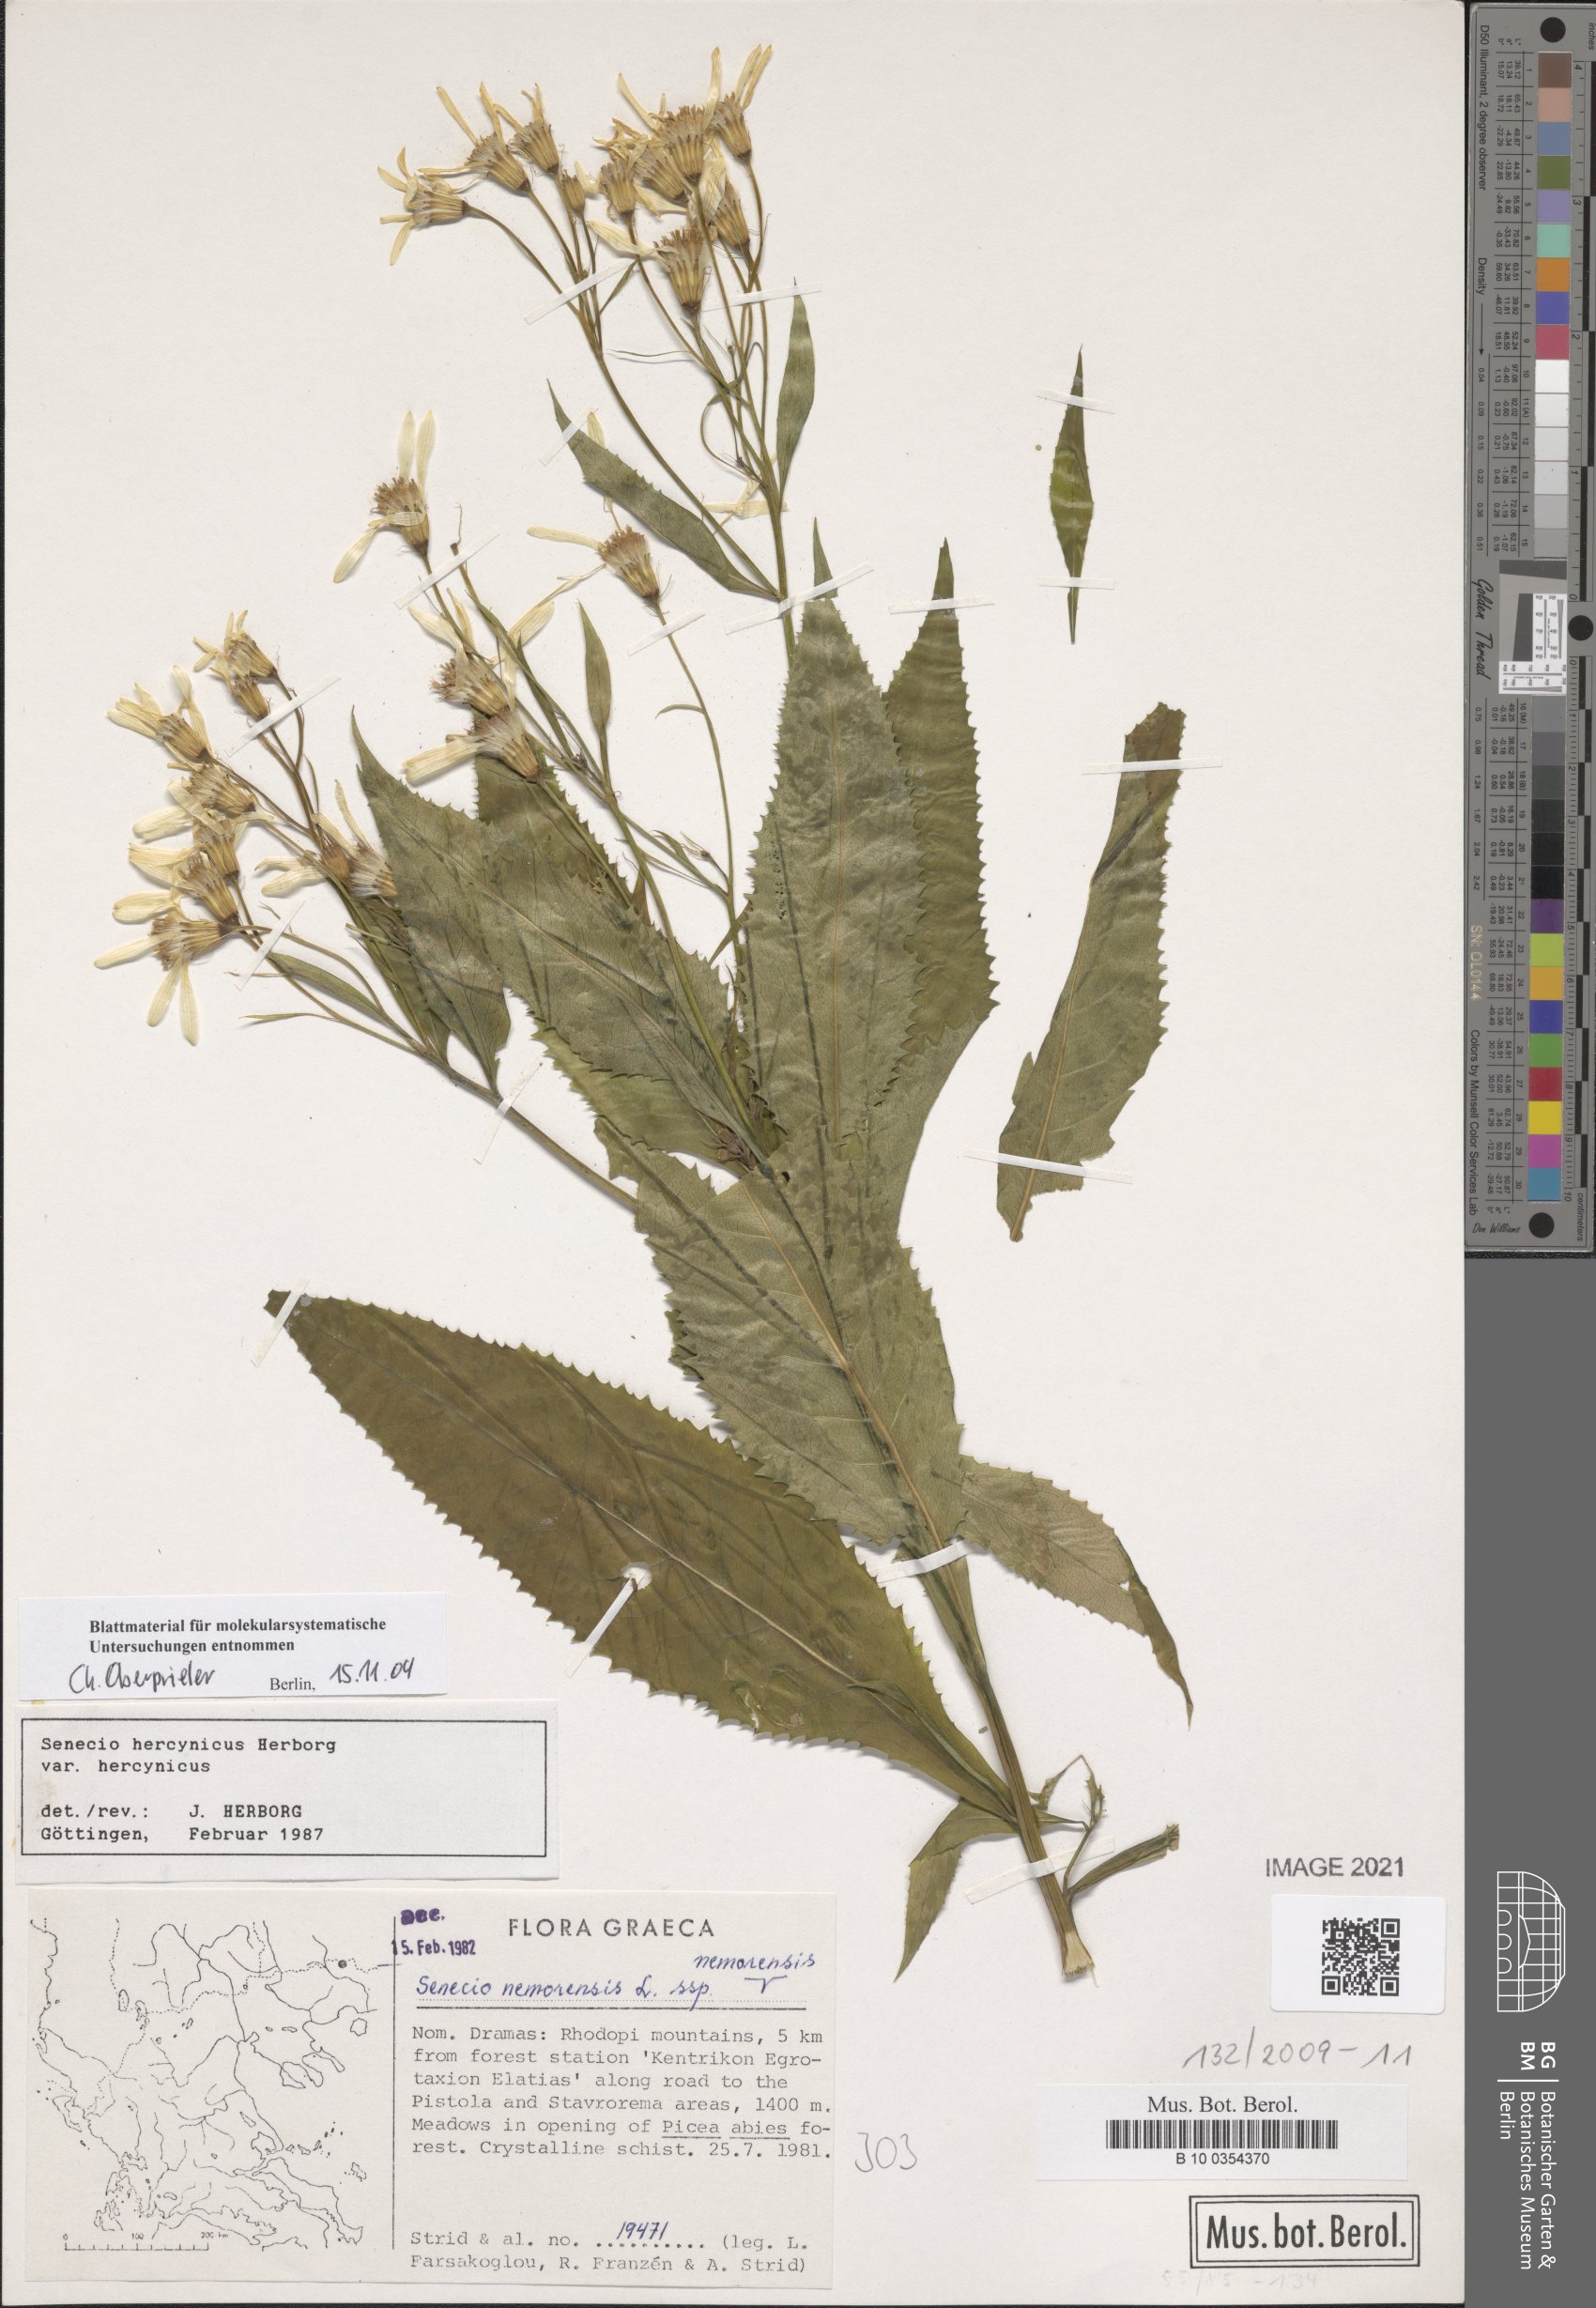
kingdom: Plantae
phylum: Tracheophyta
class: Magnoliopsida
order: Asterales
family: Asteraceae
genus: Senecio
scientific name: Senecio hercynicus
